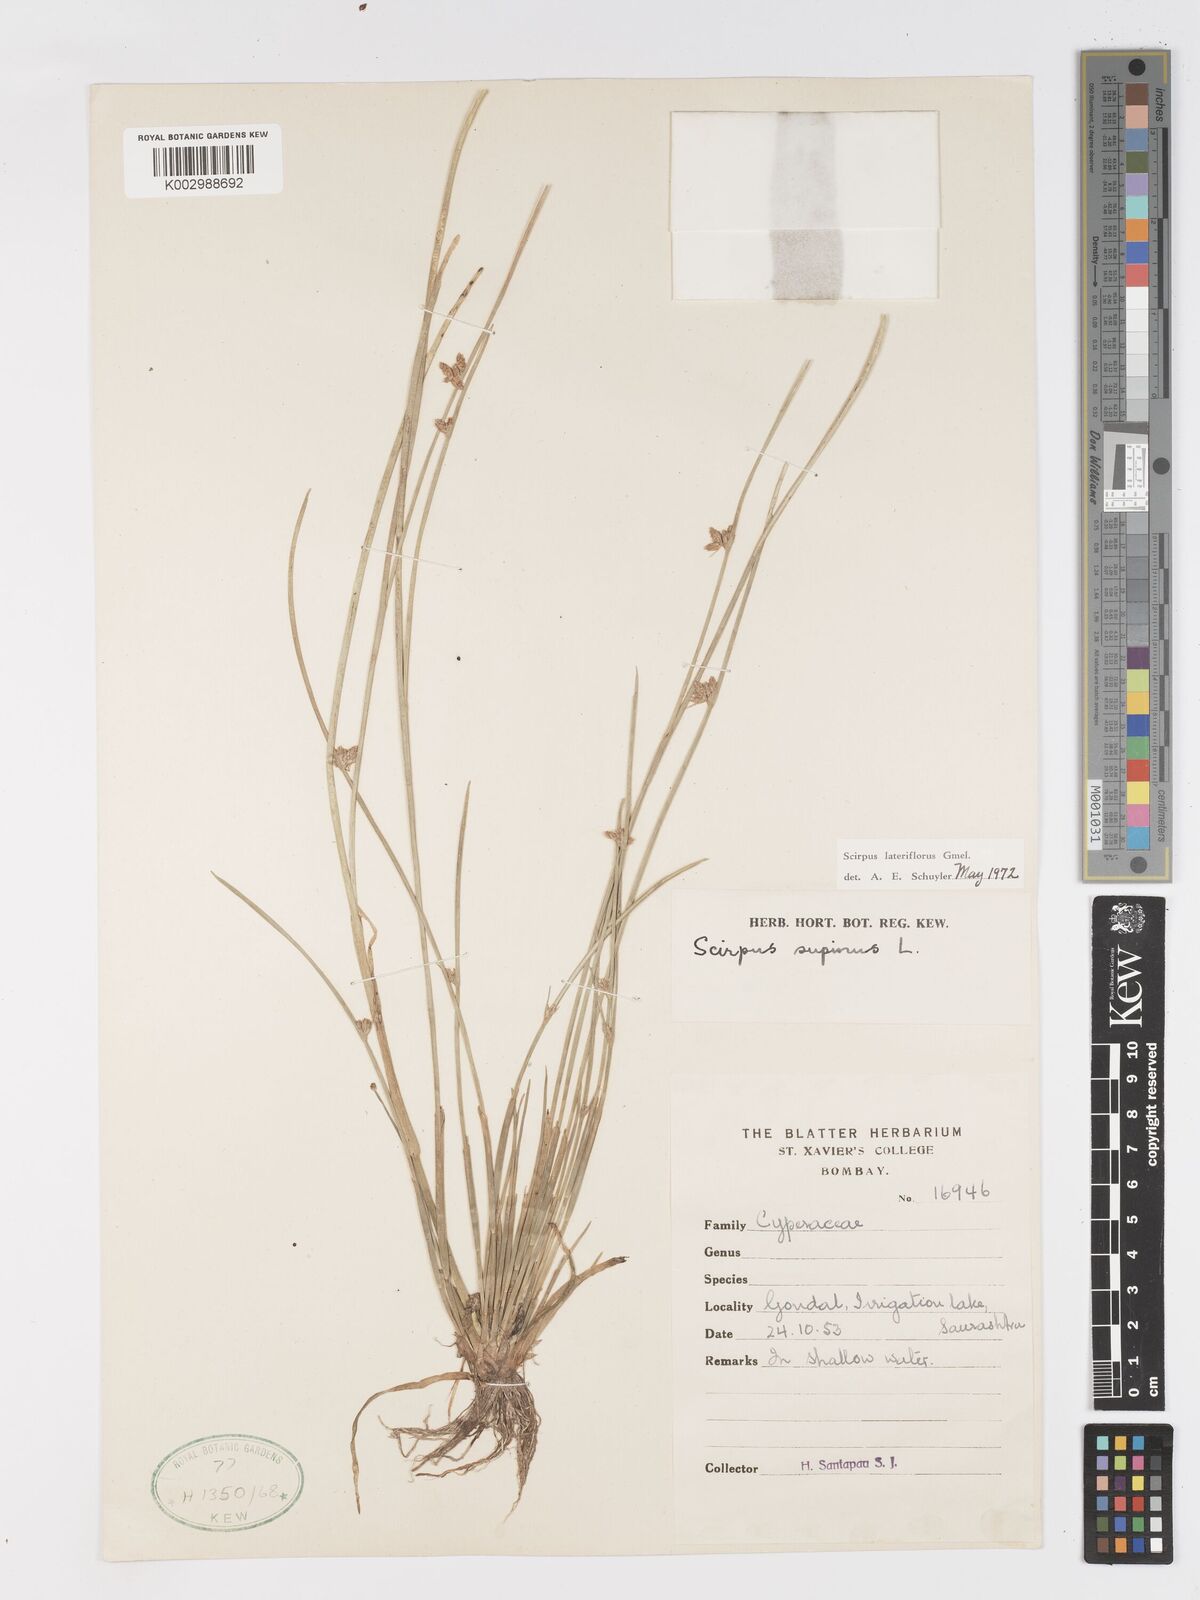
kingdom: Plantae
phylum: Tracheophyta
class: Liliopsida
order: Poales
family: Cyperaceae
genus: Schoenoplectiella
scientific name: Schoenoplectiella lateriflora
